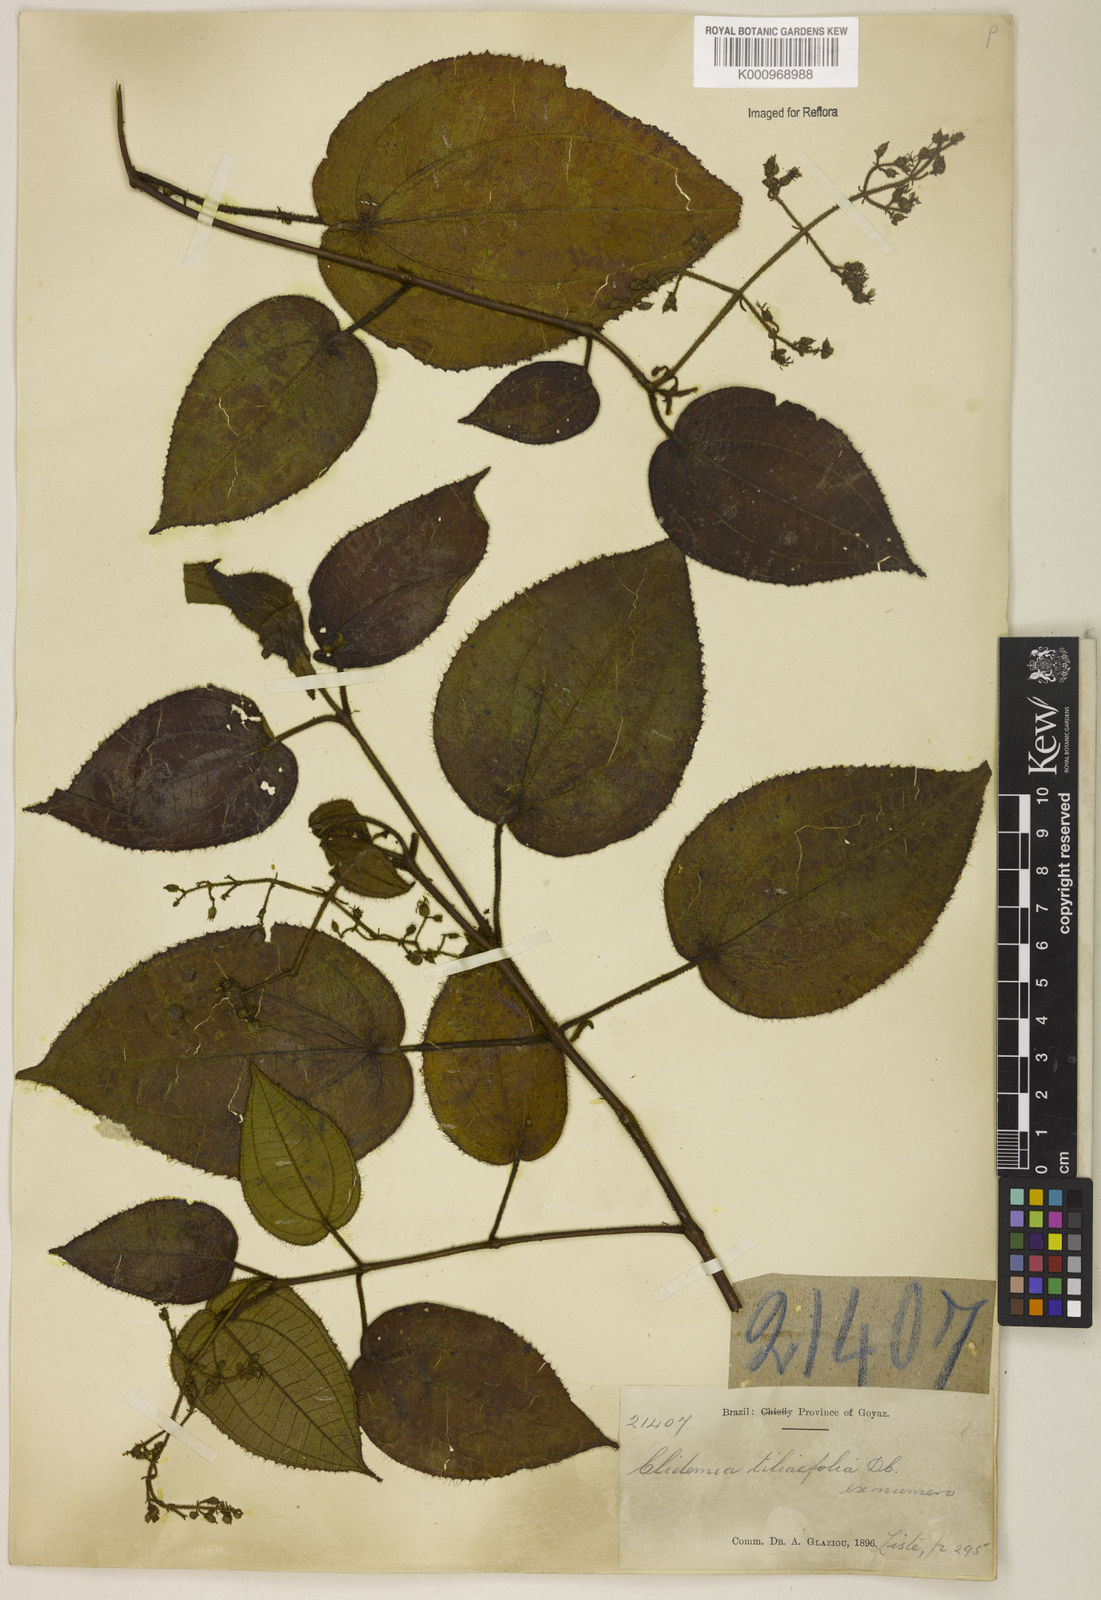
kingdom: Plantae
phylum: Tracheophyta
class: Magnoliopsida
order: Myrtales
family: Melastomataceae
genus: Miconia
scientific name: Miconia crenata
